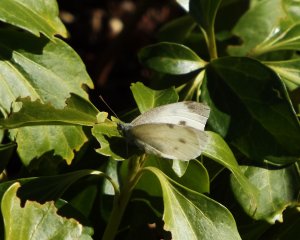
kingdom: Animalia
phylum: Arthropoda
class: Insecta
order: Lepidoptera
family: Pieridae
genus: Pieris
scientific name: Pieris rapae
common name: Cabbage White
